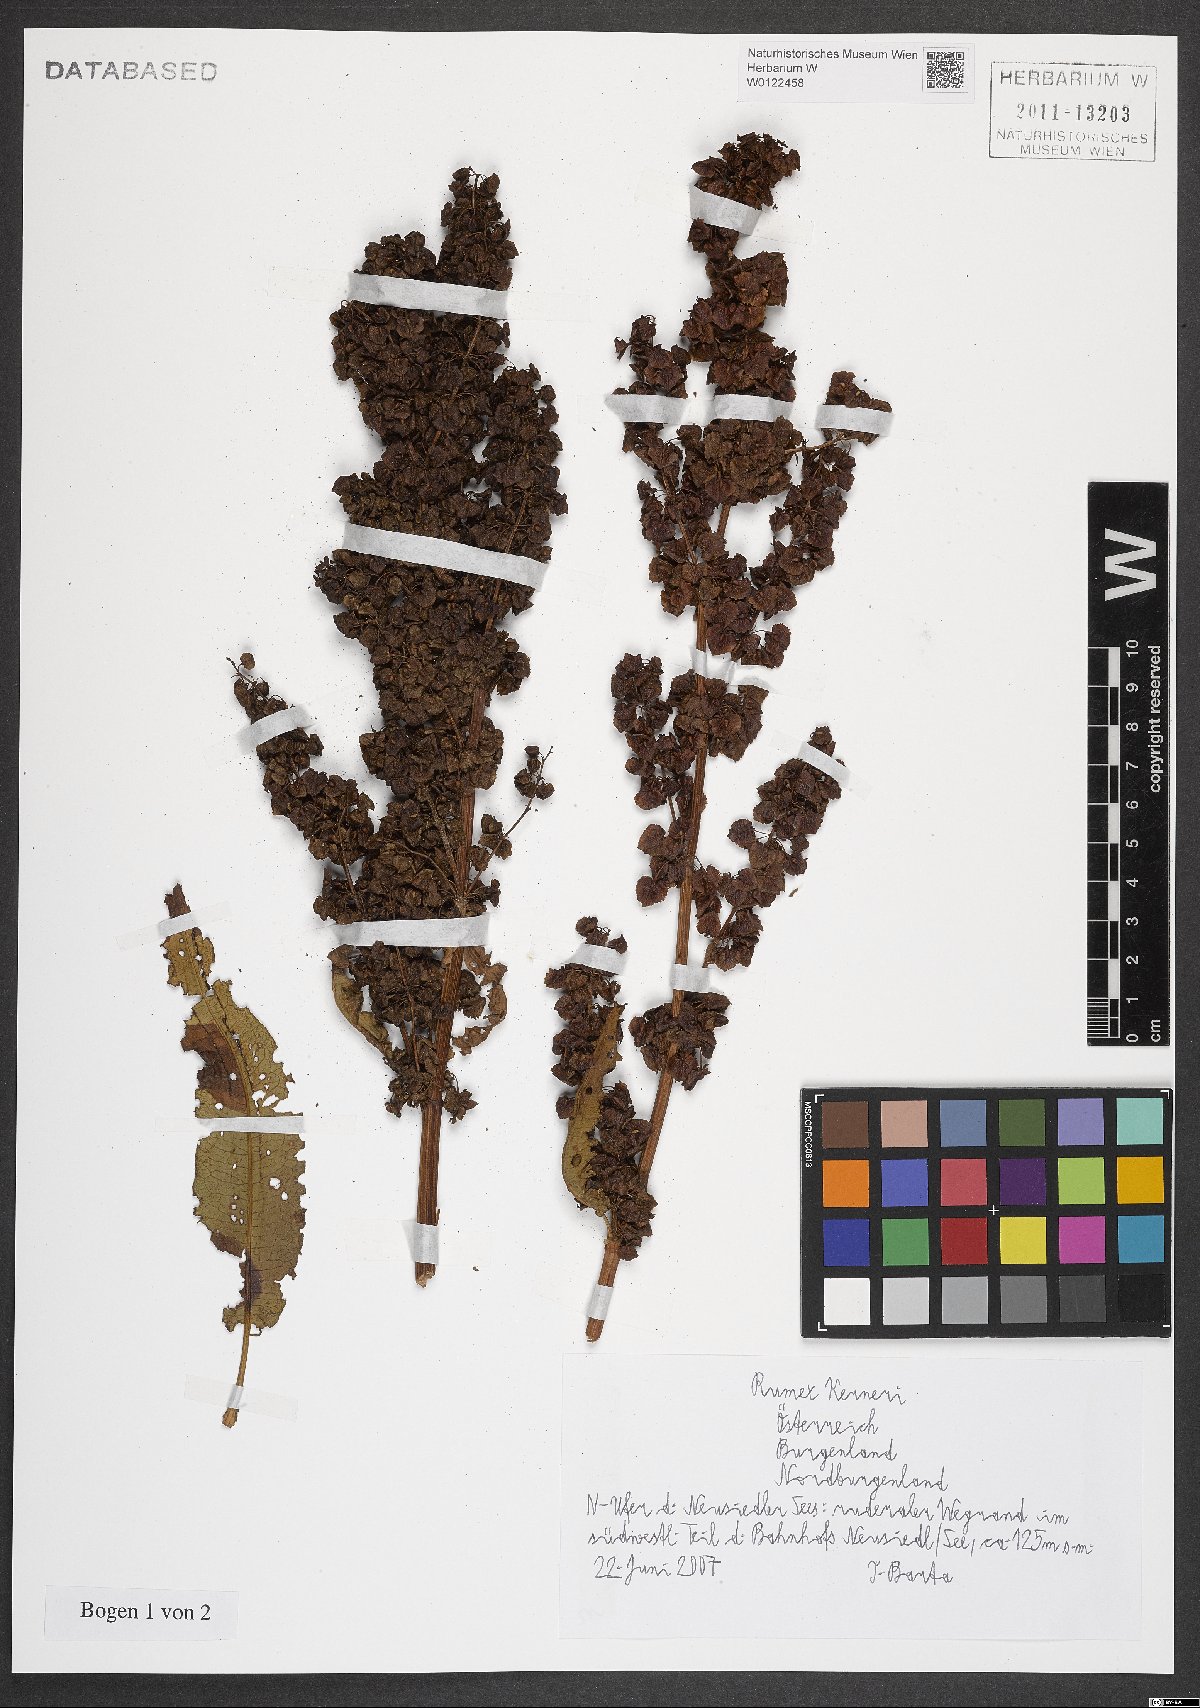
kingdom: Plantae
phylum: Tracheophyta
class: Magnoliopsida
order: Caryophyllales
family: Polygonaceae
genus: Rumex
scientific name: Rumex kerneri
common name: Kerner's dock
